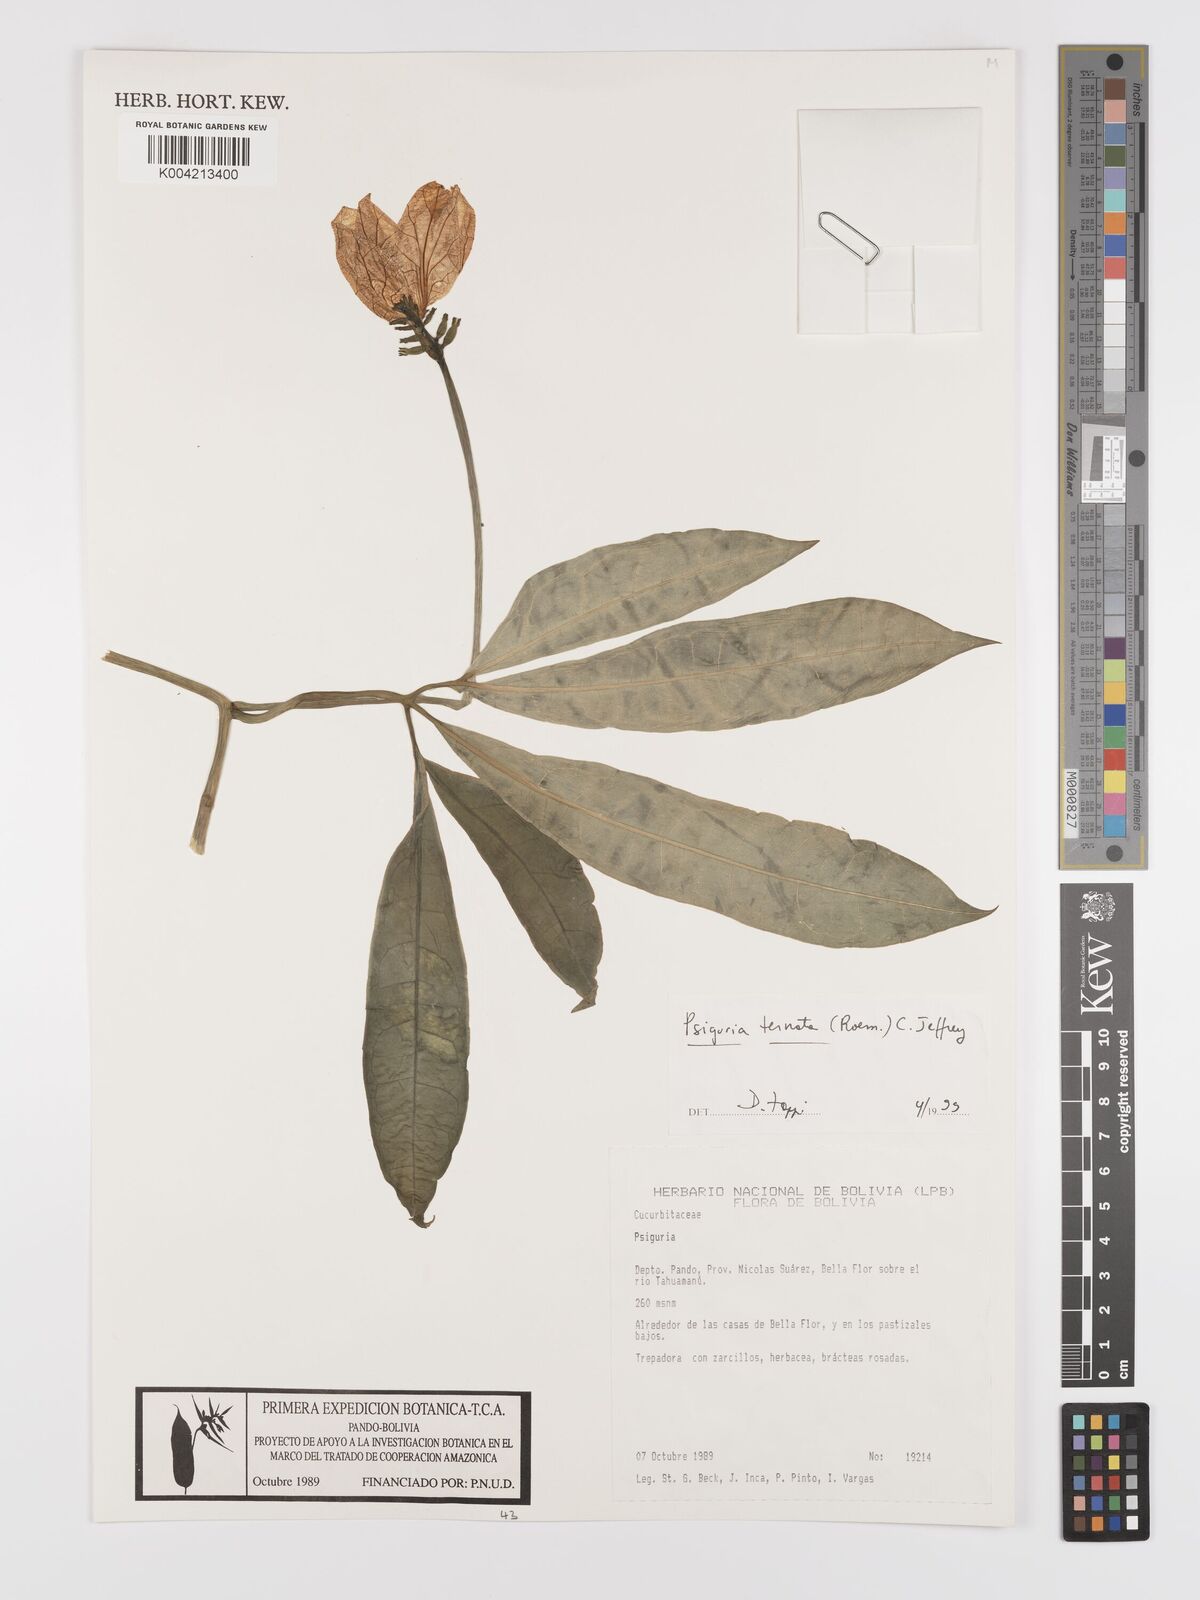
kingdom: Plantae
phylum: Tracheophyta
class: Magnoliopsida
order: Cucurbitales
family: Cucurbitaceae
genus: Psiguria
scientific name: Psiguria ternata
